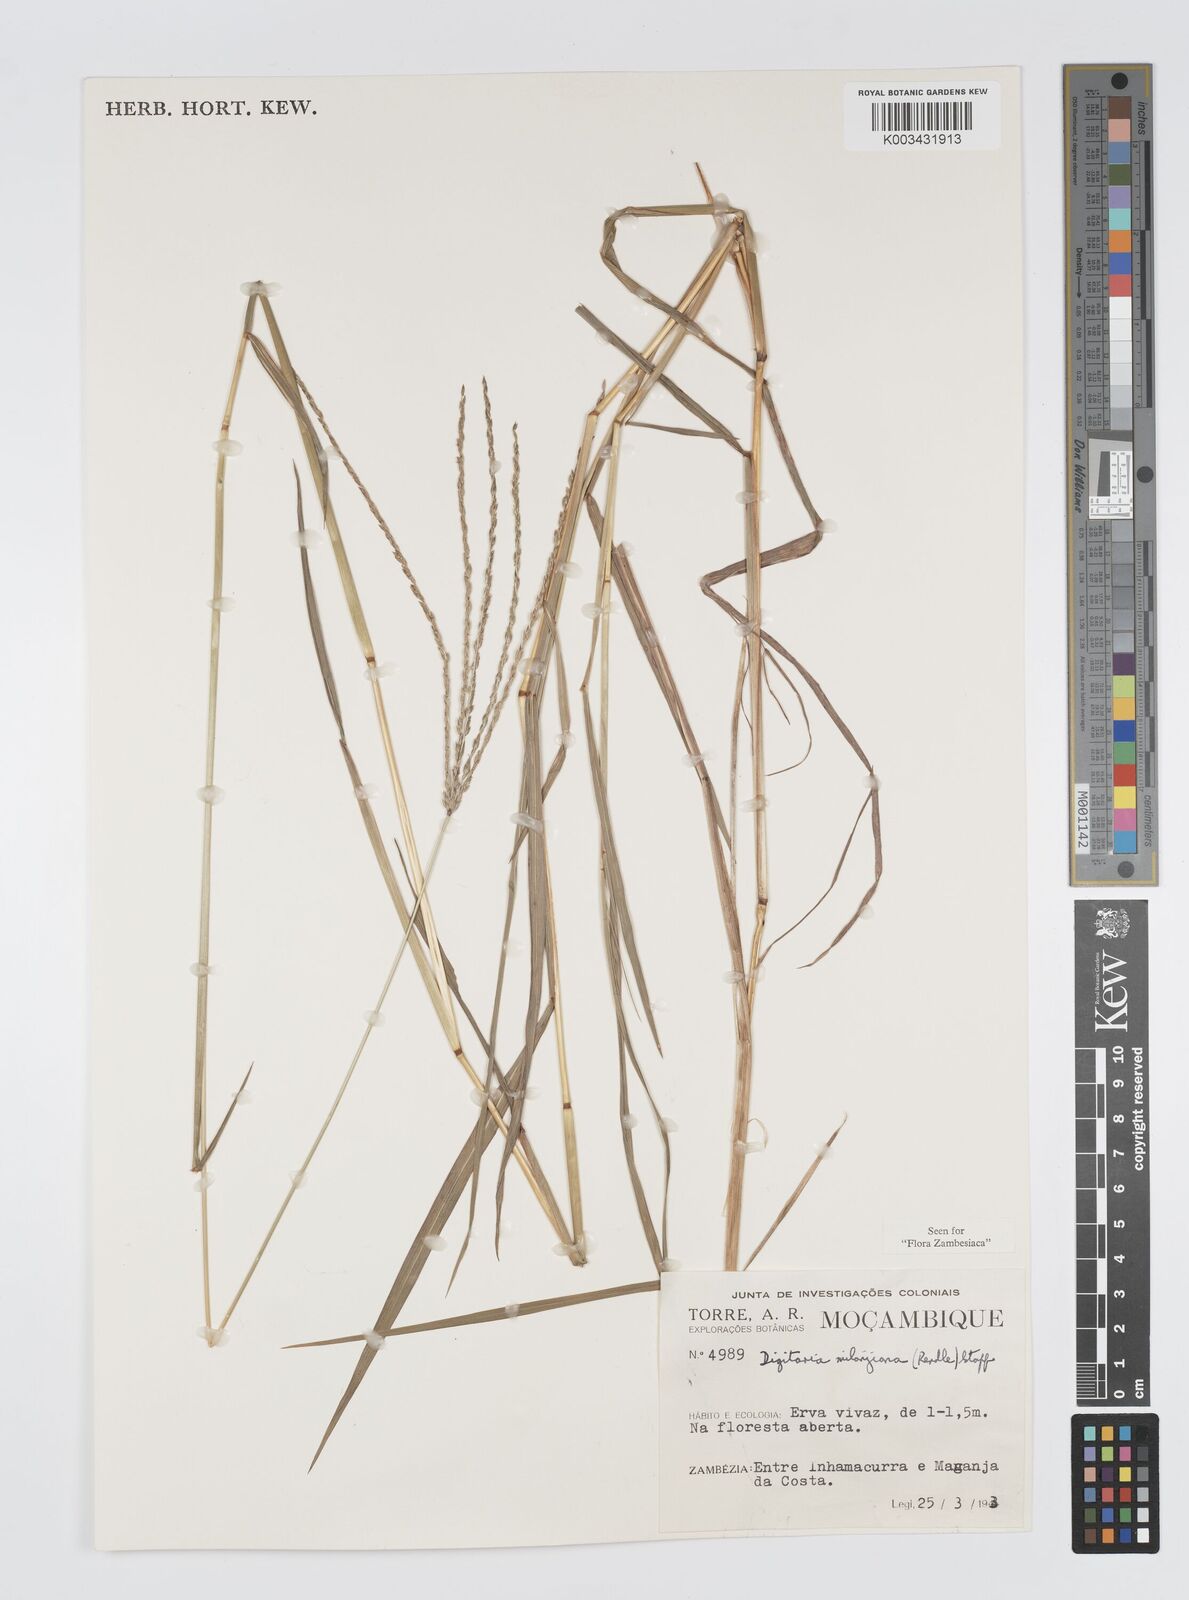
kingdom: Plantae
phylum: Tracheophyta
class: Liliopsida
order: Poales
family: Poaceae
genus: Digitaria
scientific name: Digitaria milanjiana
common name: Madagascar crabgrass
